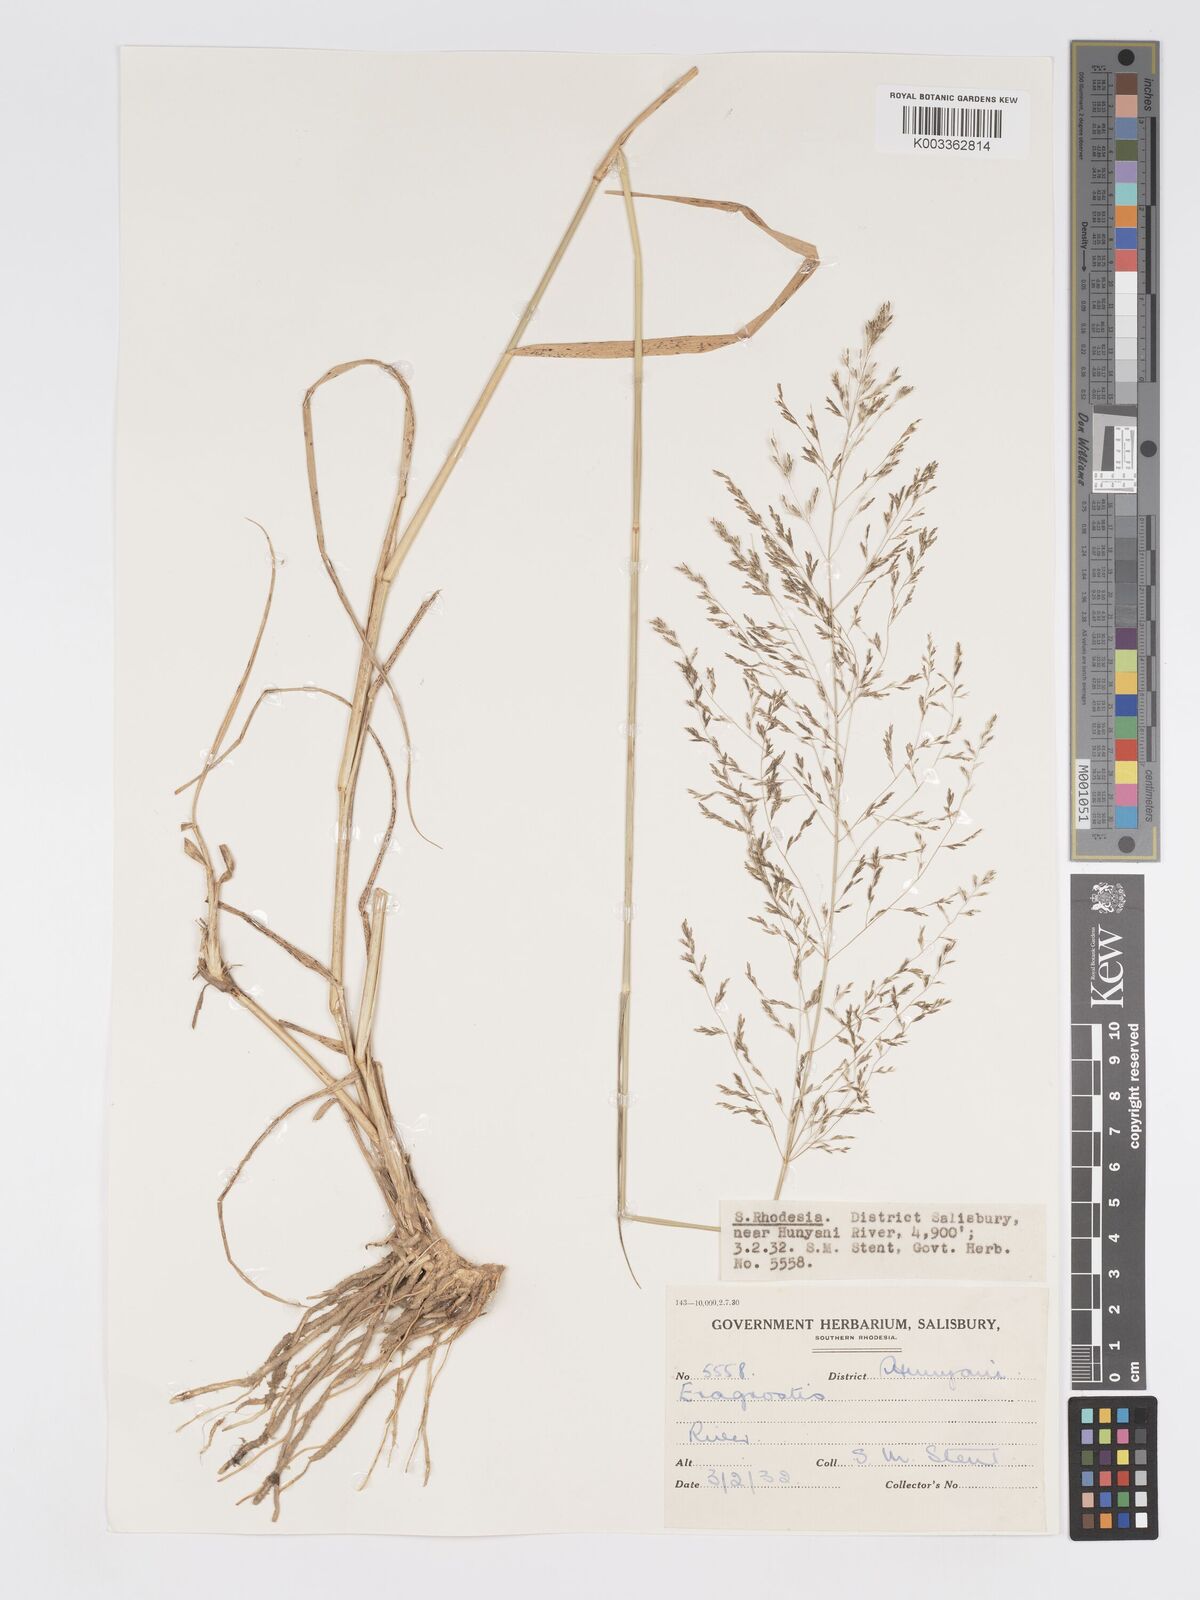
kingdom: Plantae
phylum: Tracheophyta
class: Liliopsida
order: Poales
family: Poaceae
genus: Eragrostis
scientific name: Eragrostis cylindriflora
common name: Cylinderflower lovegrass
